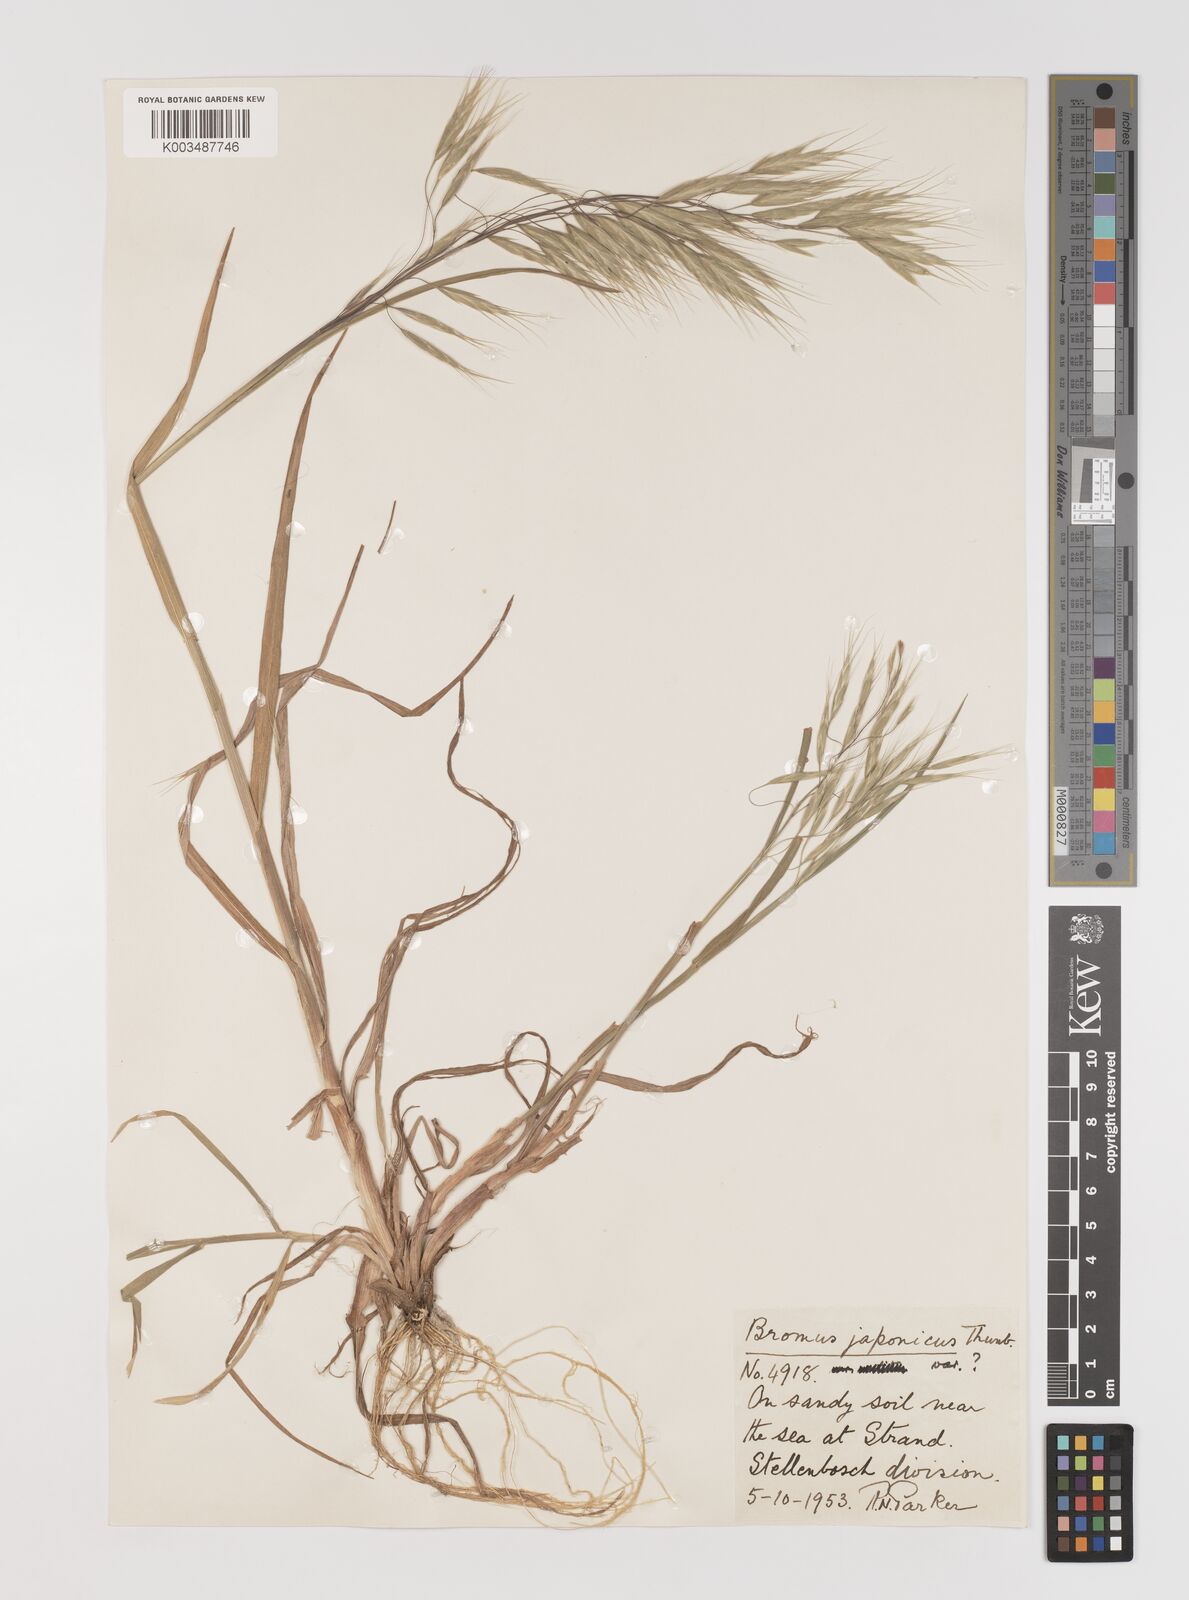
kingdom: Plantae
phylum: Tracheophyta
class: Liliopsida
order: Poales
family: Poaceae
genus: Bromus
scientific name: Bromus pectinatus
